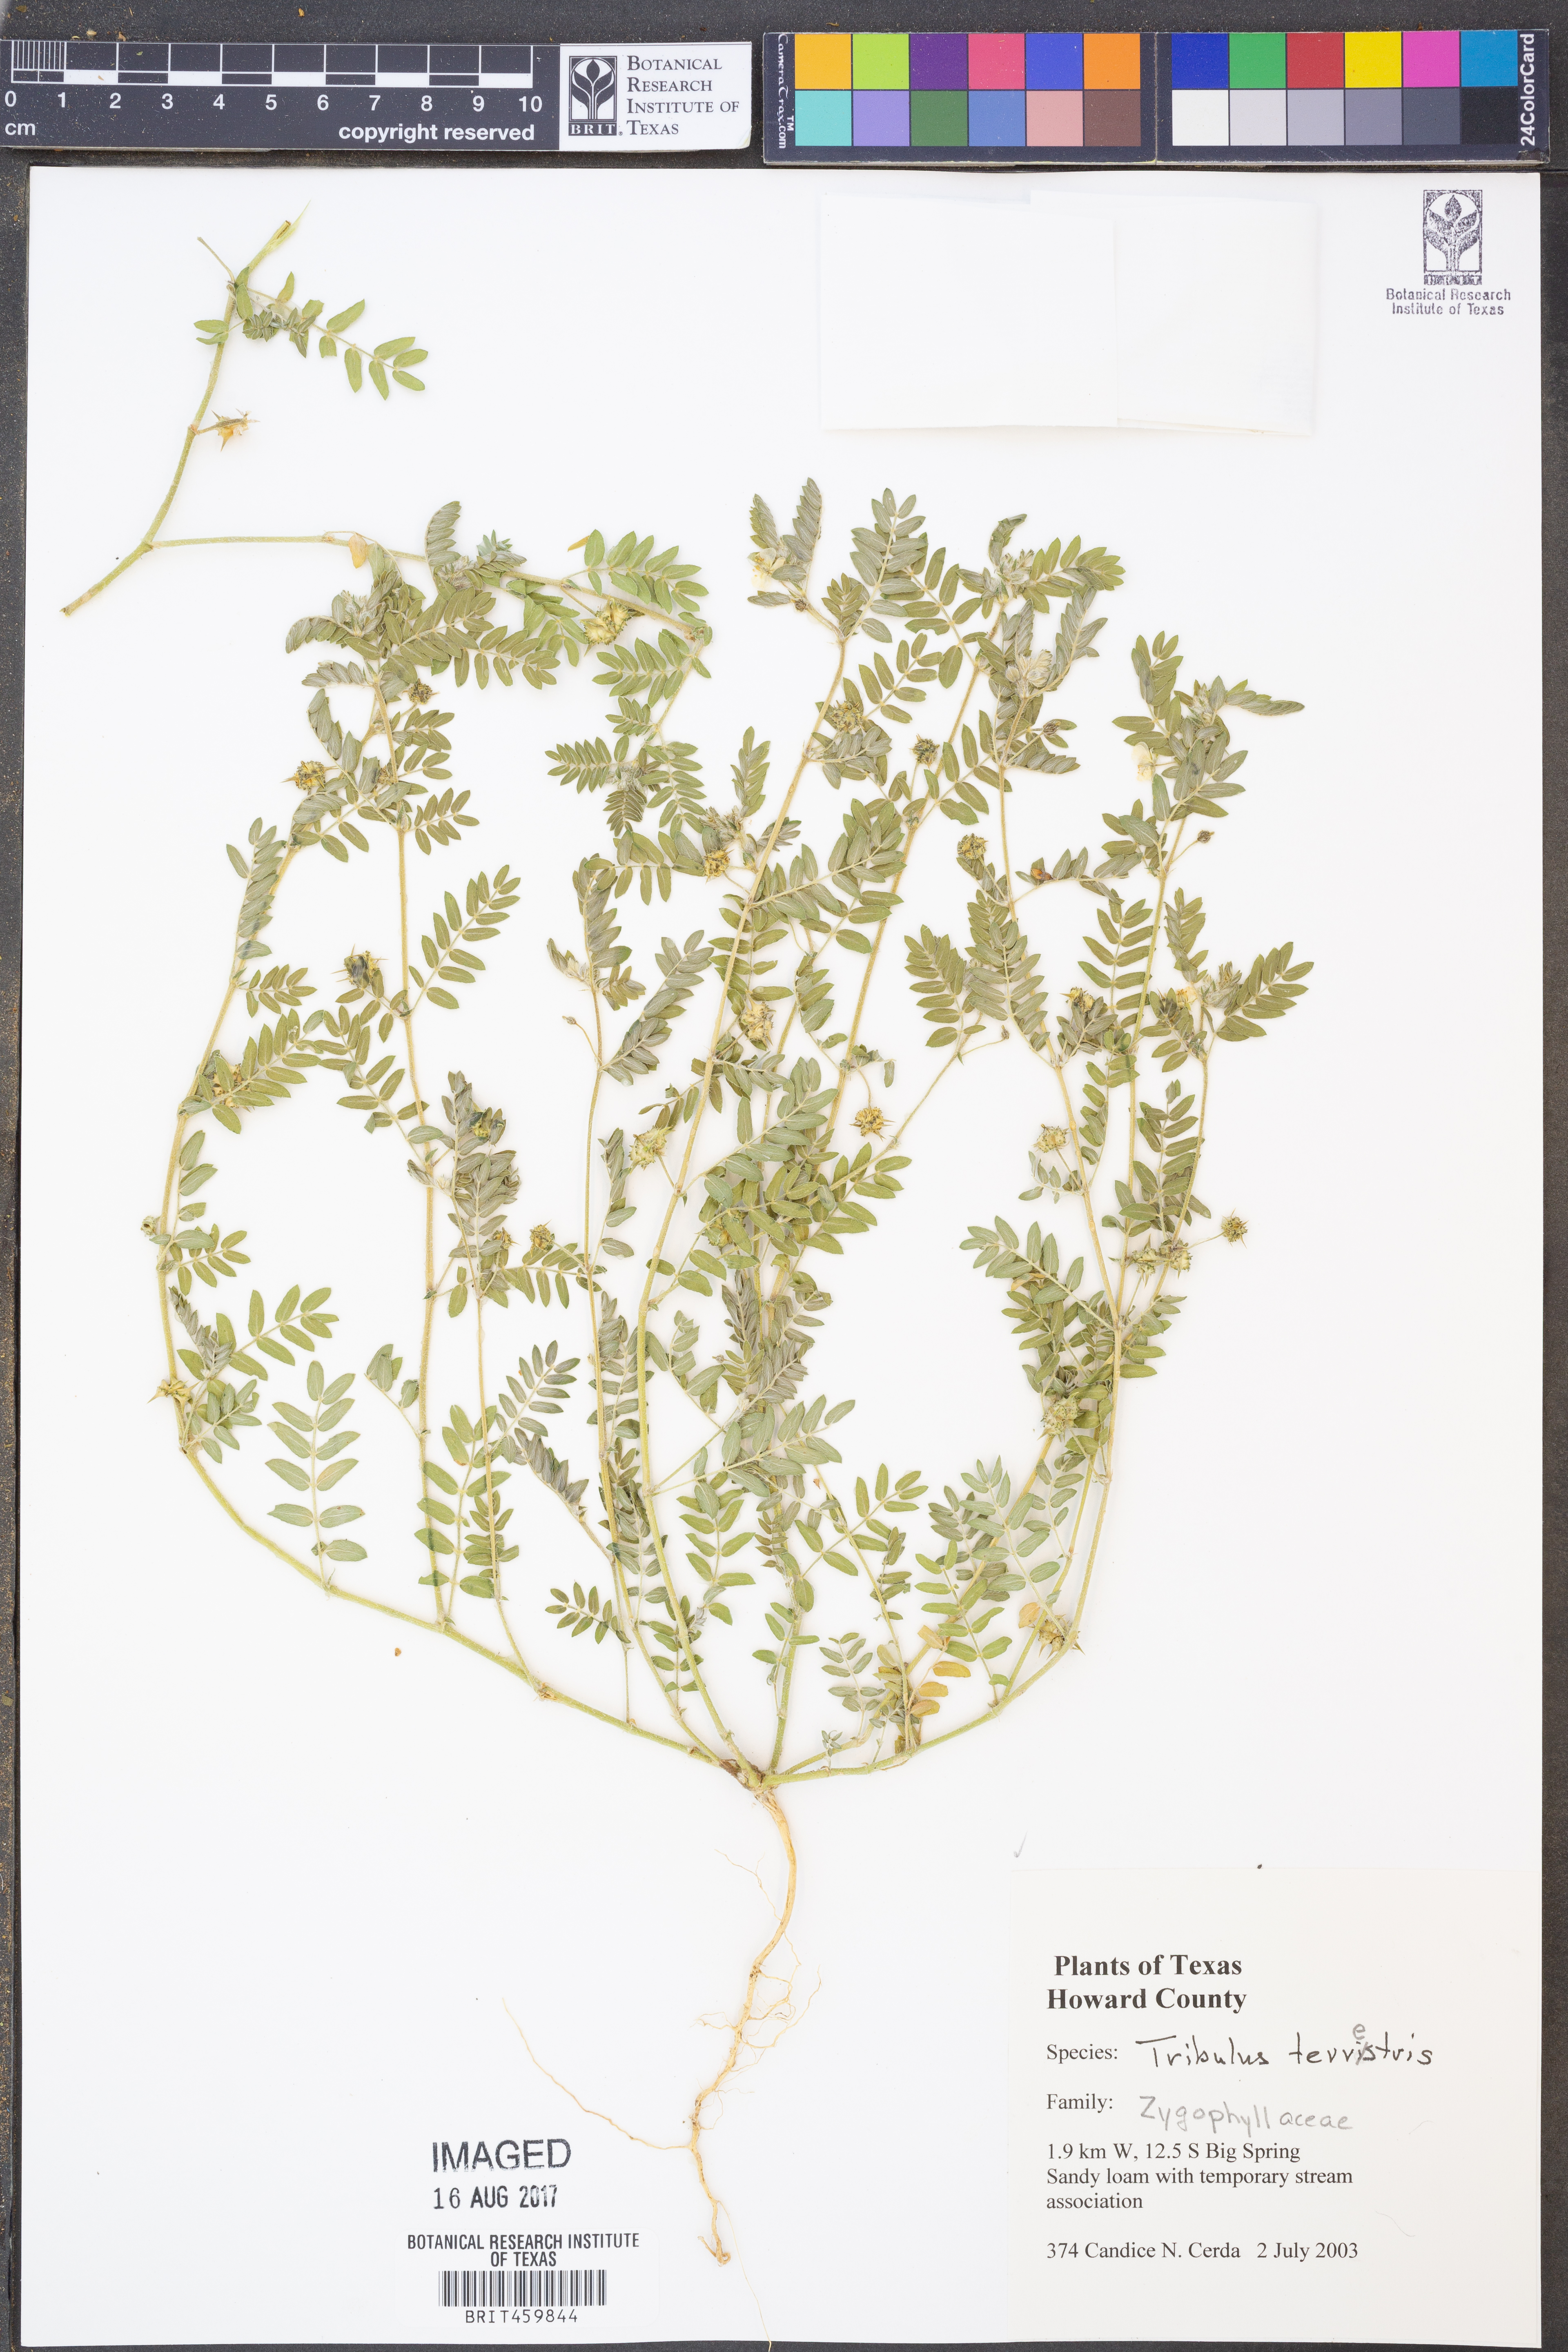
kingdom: Plantae
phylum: Tracheophyta
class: Magnoliopsida
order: Zygophyllales
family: Zygophyllaceae
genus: Tribulus
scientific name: Tribulus terrestris
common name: Puncturevine
